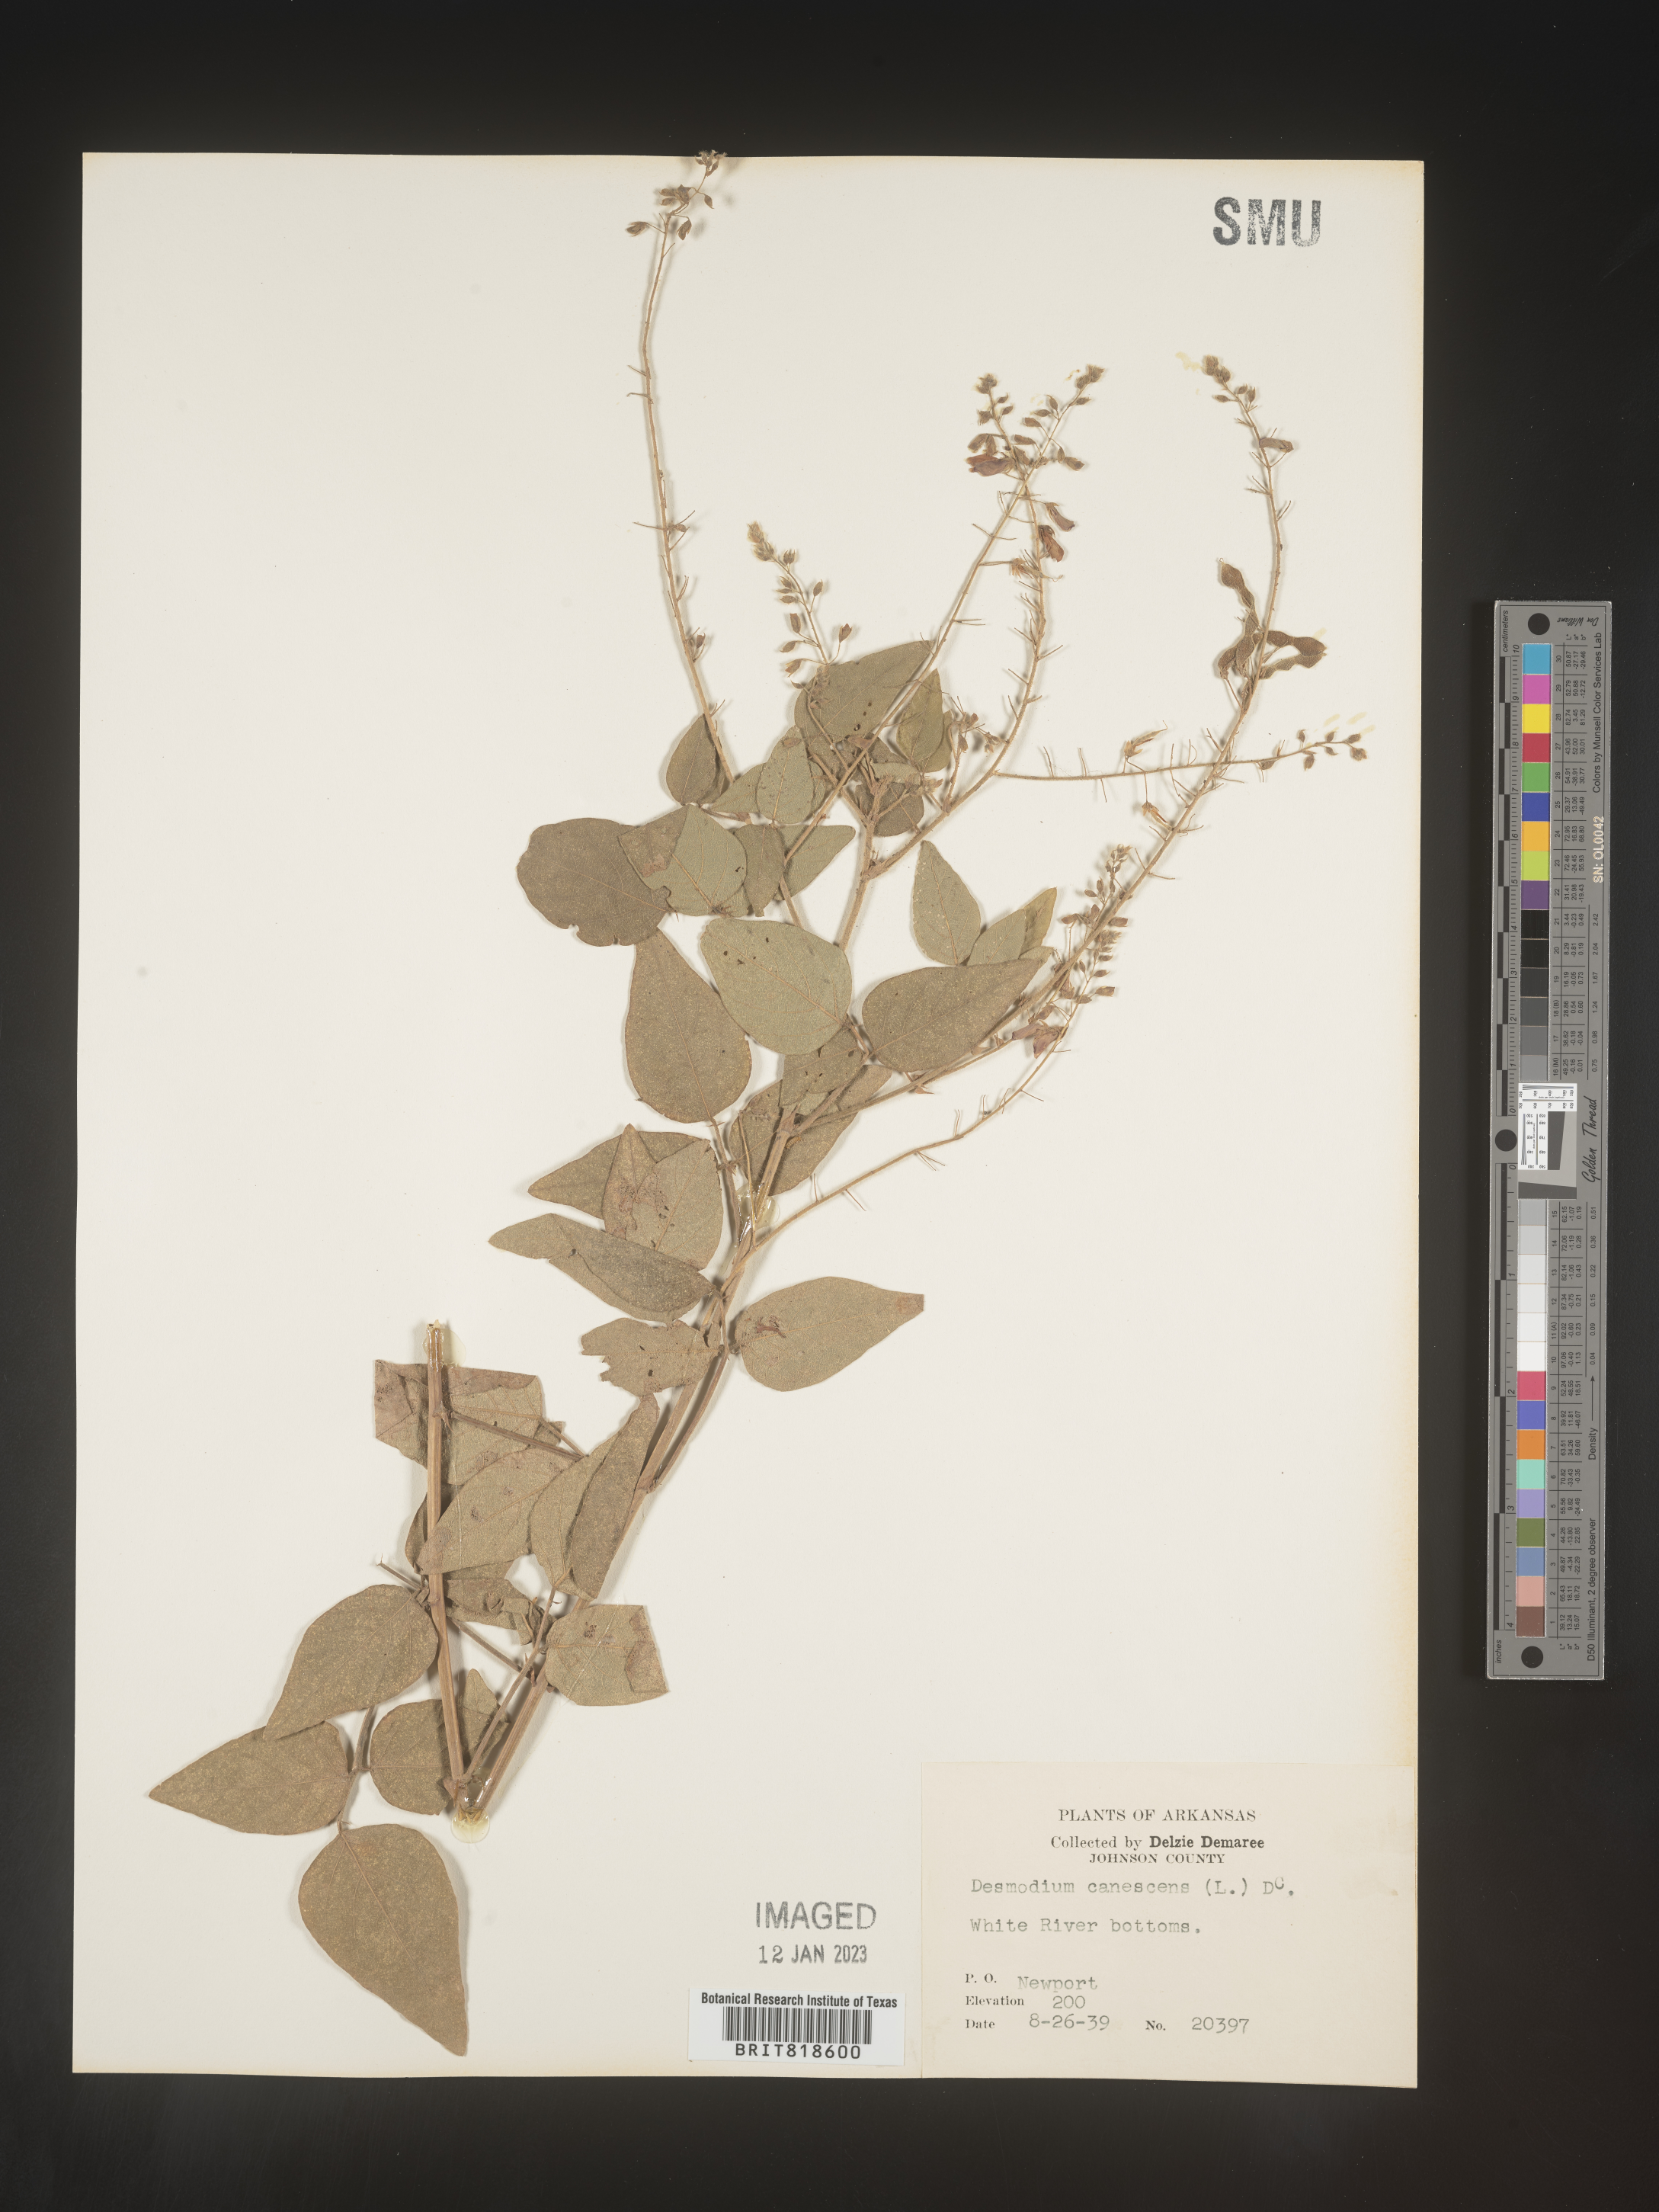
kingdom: Plantae
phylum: Tracheophyta
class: Magnoliopsida
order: Fabales
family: Fabaceae
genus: Desmodium
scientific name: Desmodium canescens
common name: Hoary tick-clover
